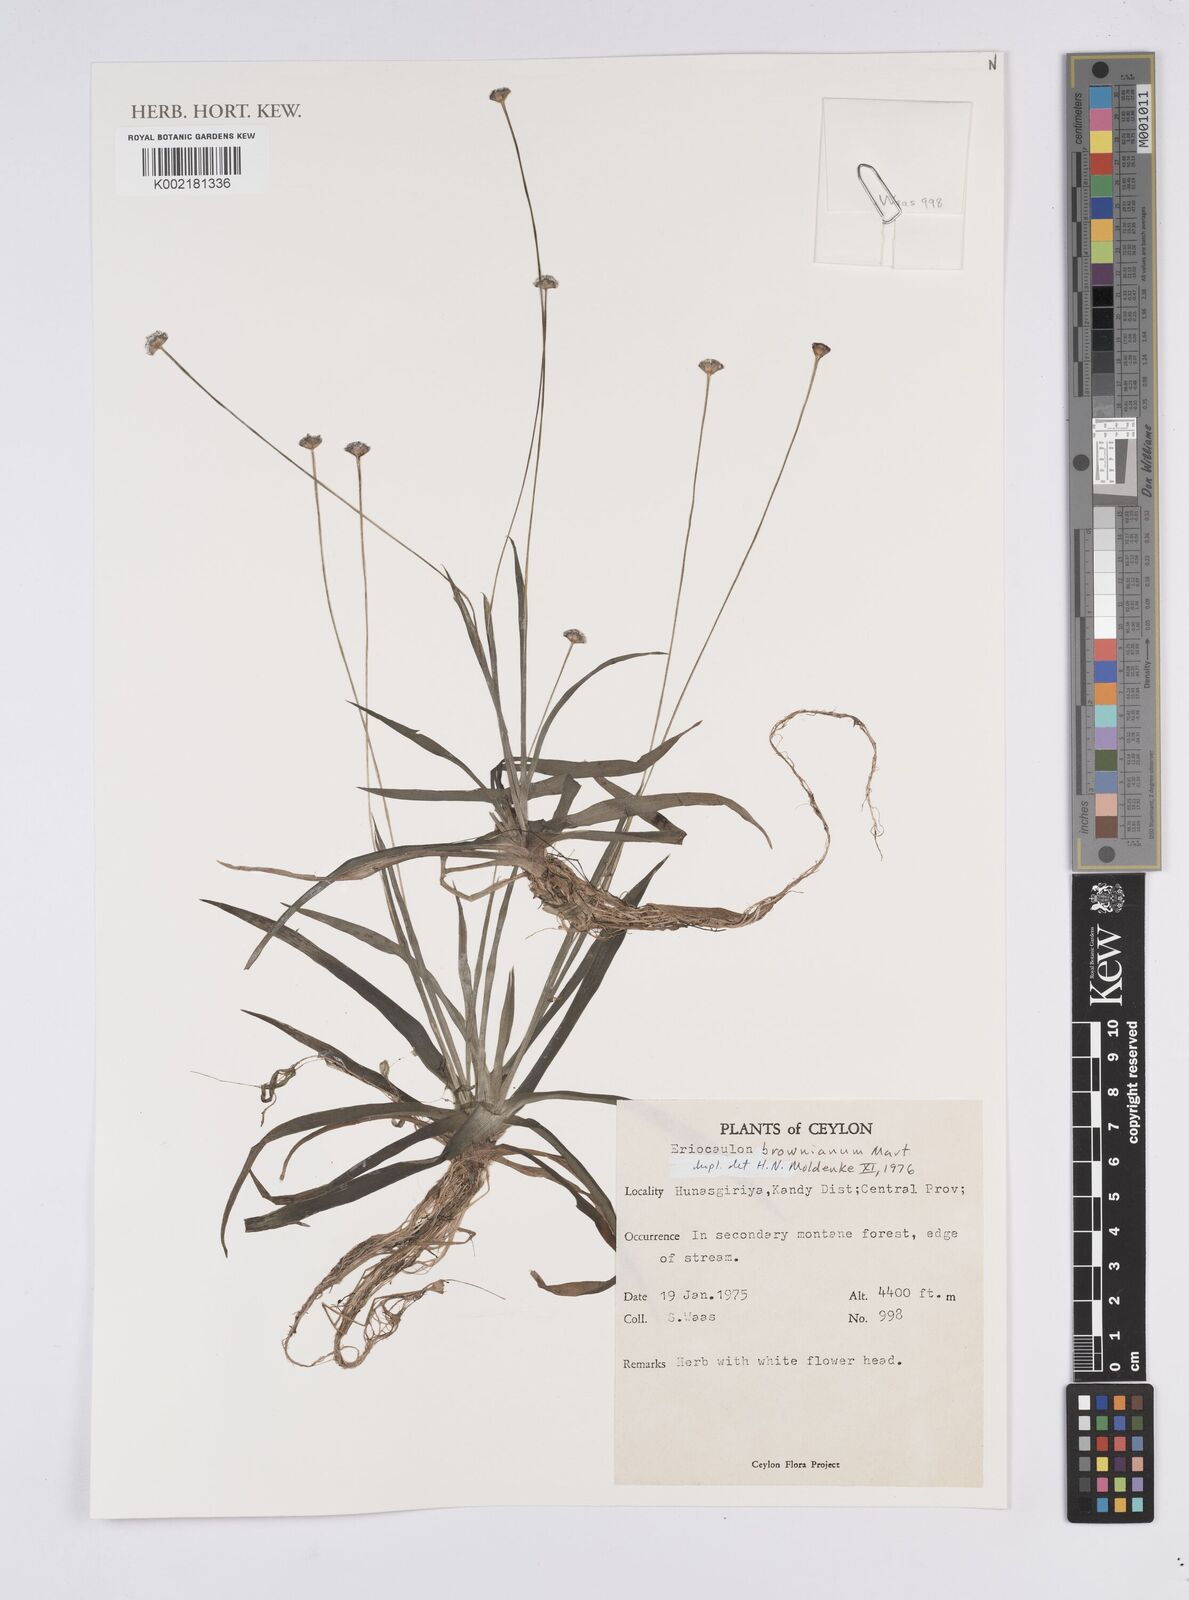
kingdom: Plantae
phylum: Tracheophyta
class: Liliopsida
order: Poales
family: Eriocaulaceae
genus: Eriocaulon
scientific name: Eriocaulon brownianum
